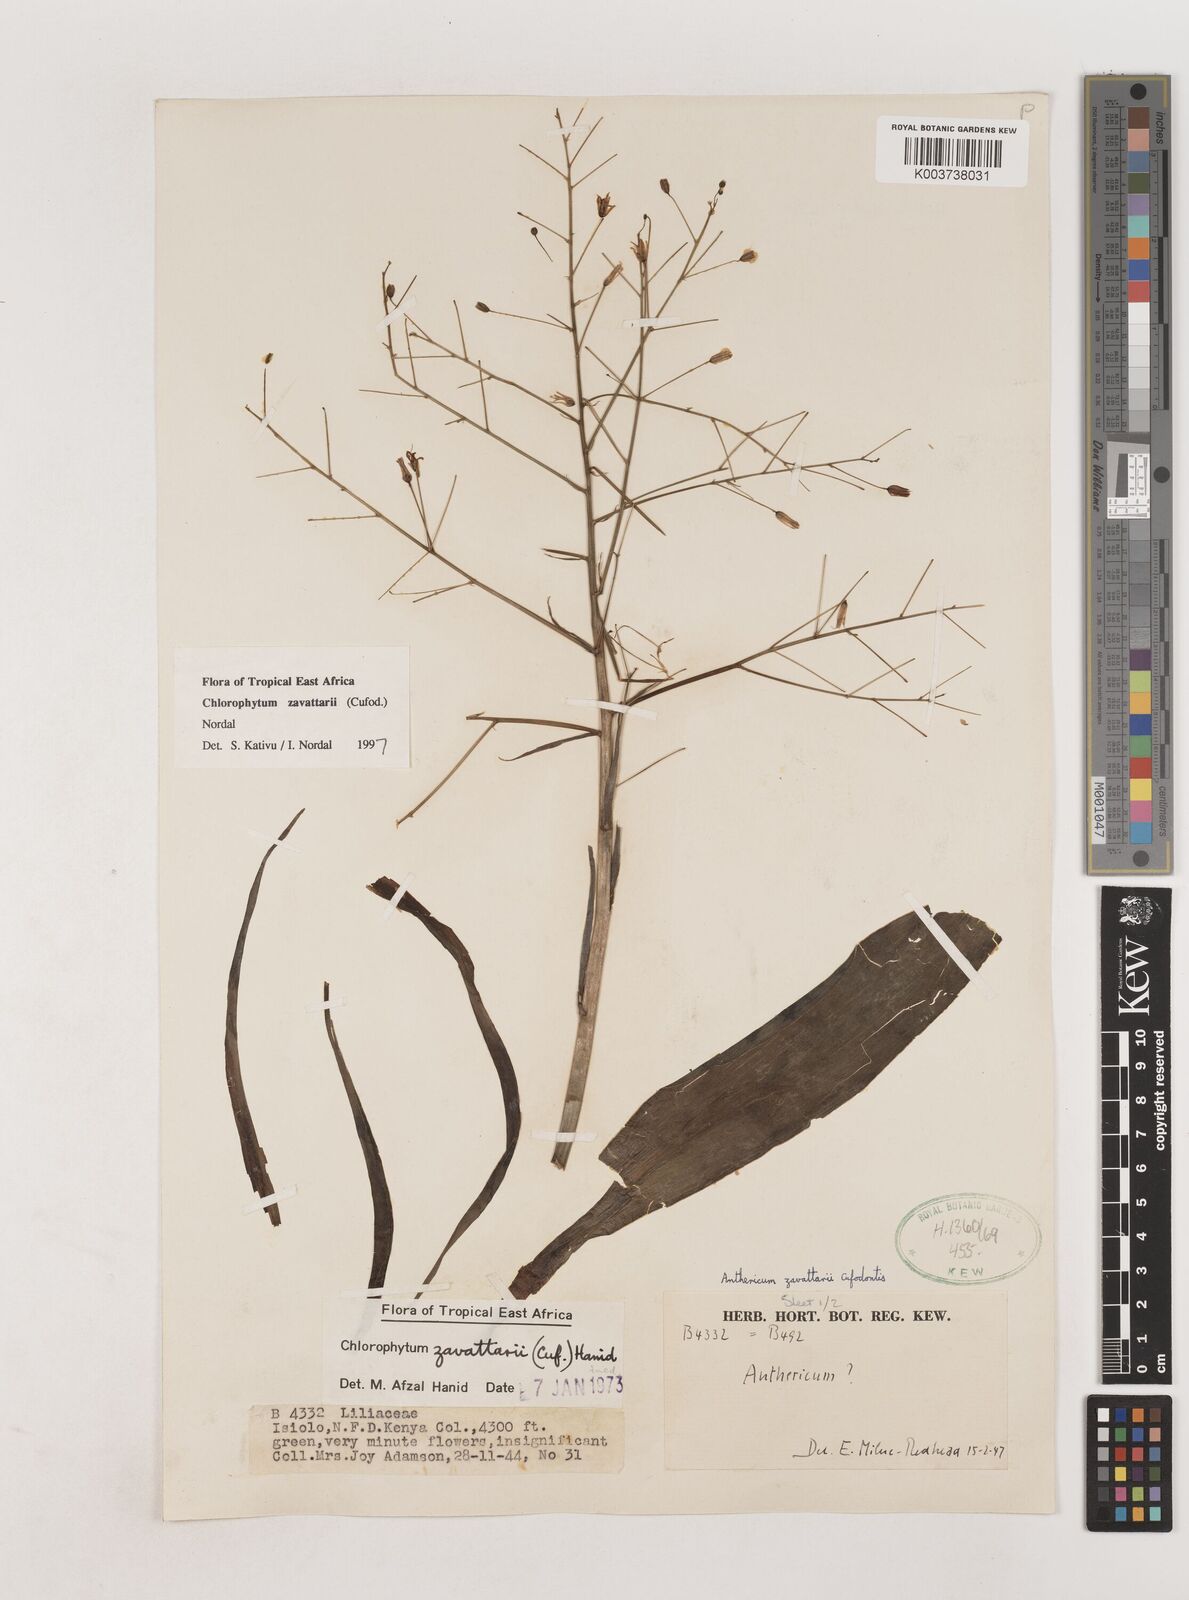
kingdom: Plantae
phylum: Tracheophyta
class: Liliopsida
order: Asparagales
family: Asparagaceae
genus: Chlorophytum
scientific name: Chlorophytum zavattarii
